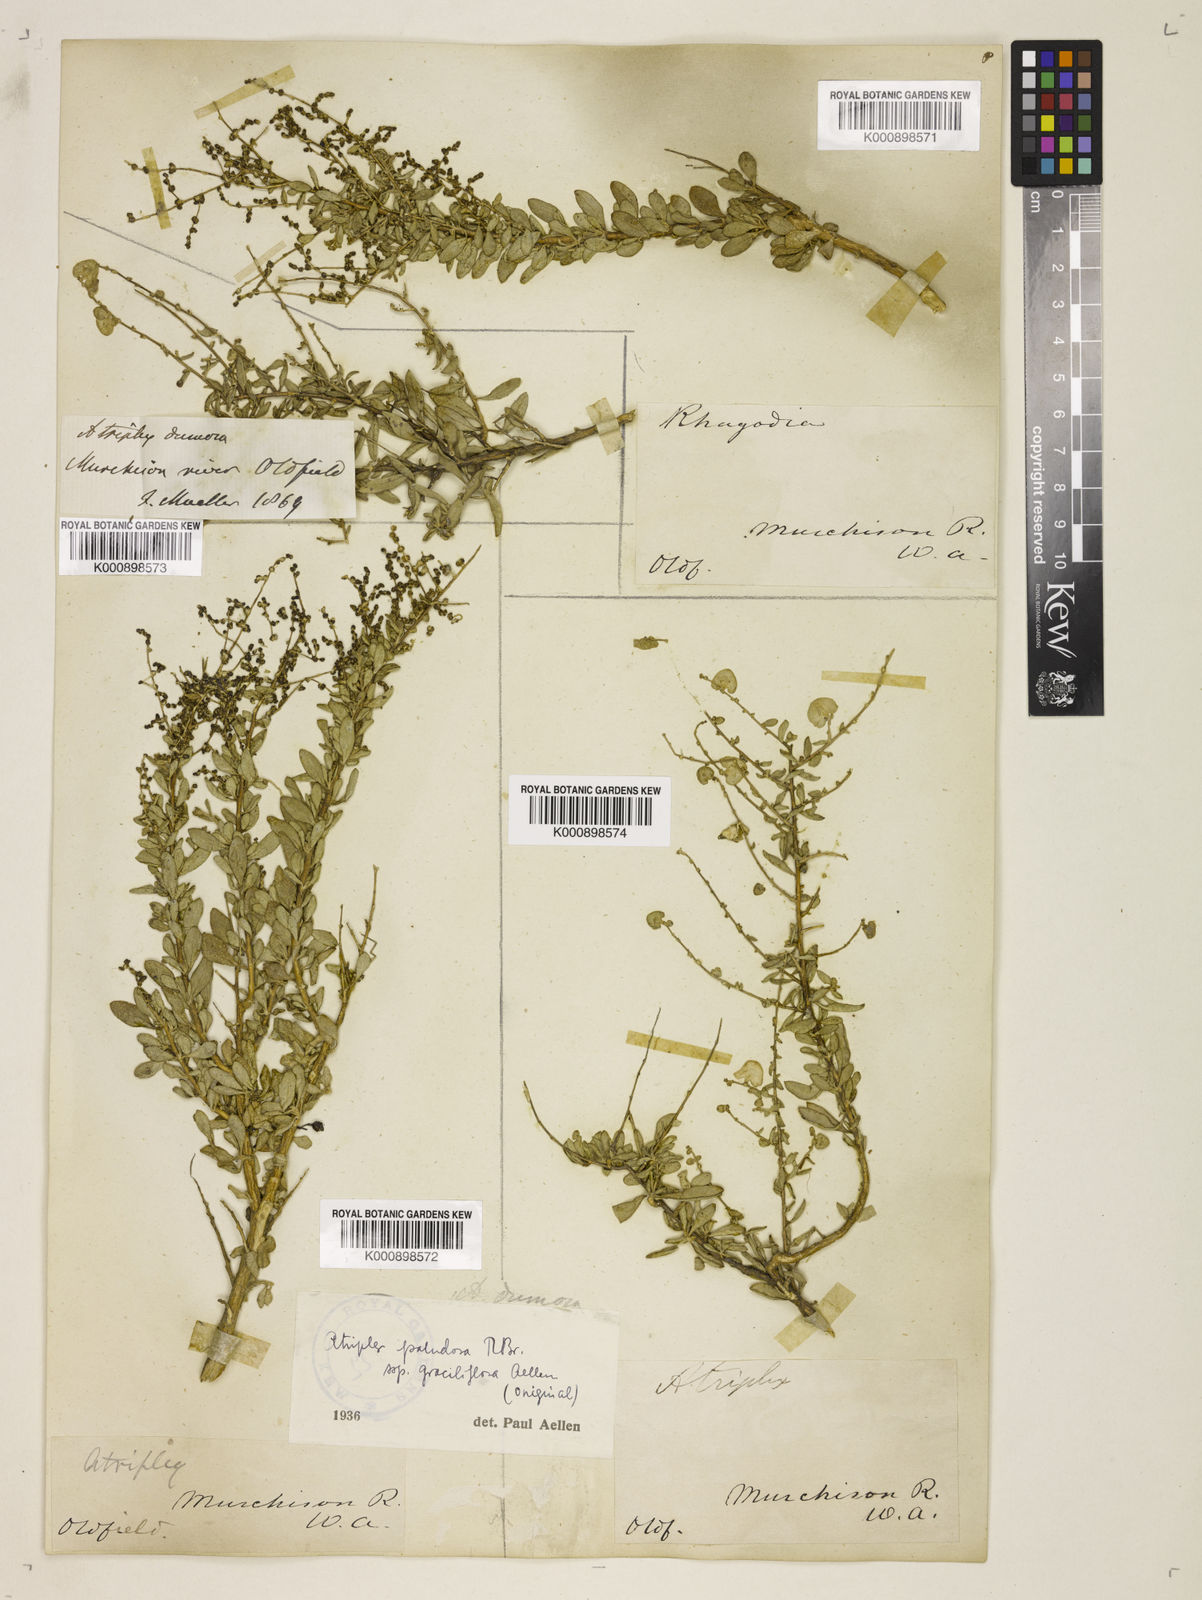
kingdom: Plantae
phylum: Tracheophyta
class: Magnoliopsida
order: Caryophyllales
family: Amaranthaceae
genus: Atriplex
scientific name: Atriplex bunburyana
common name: Silver saltbush
